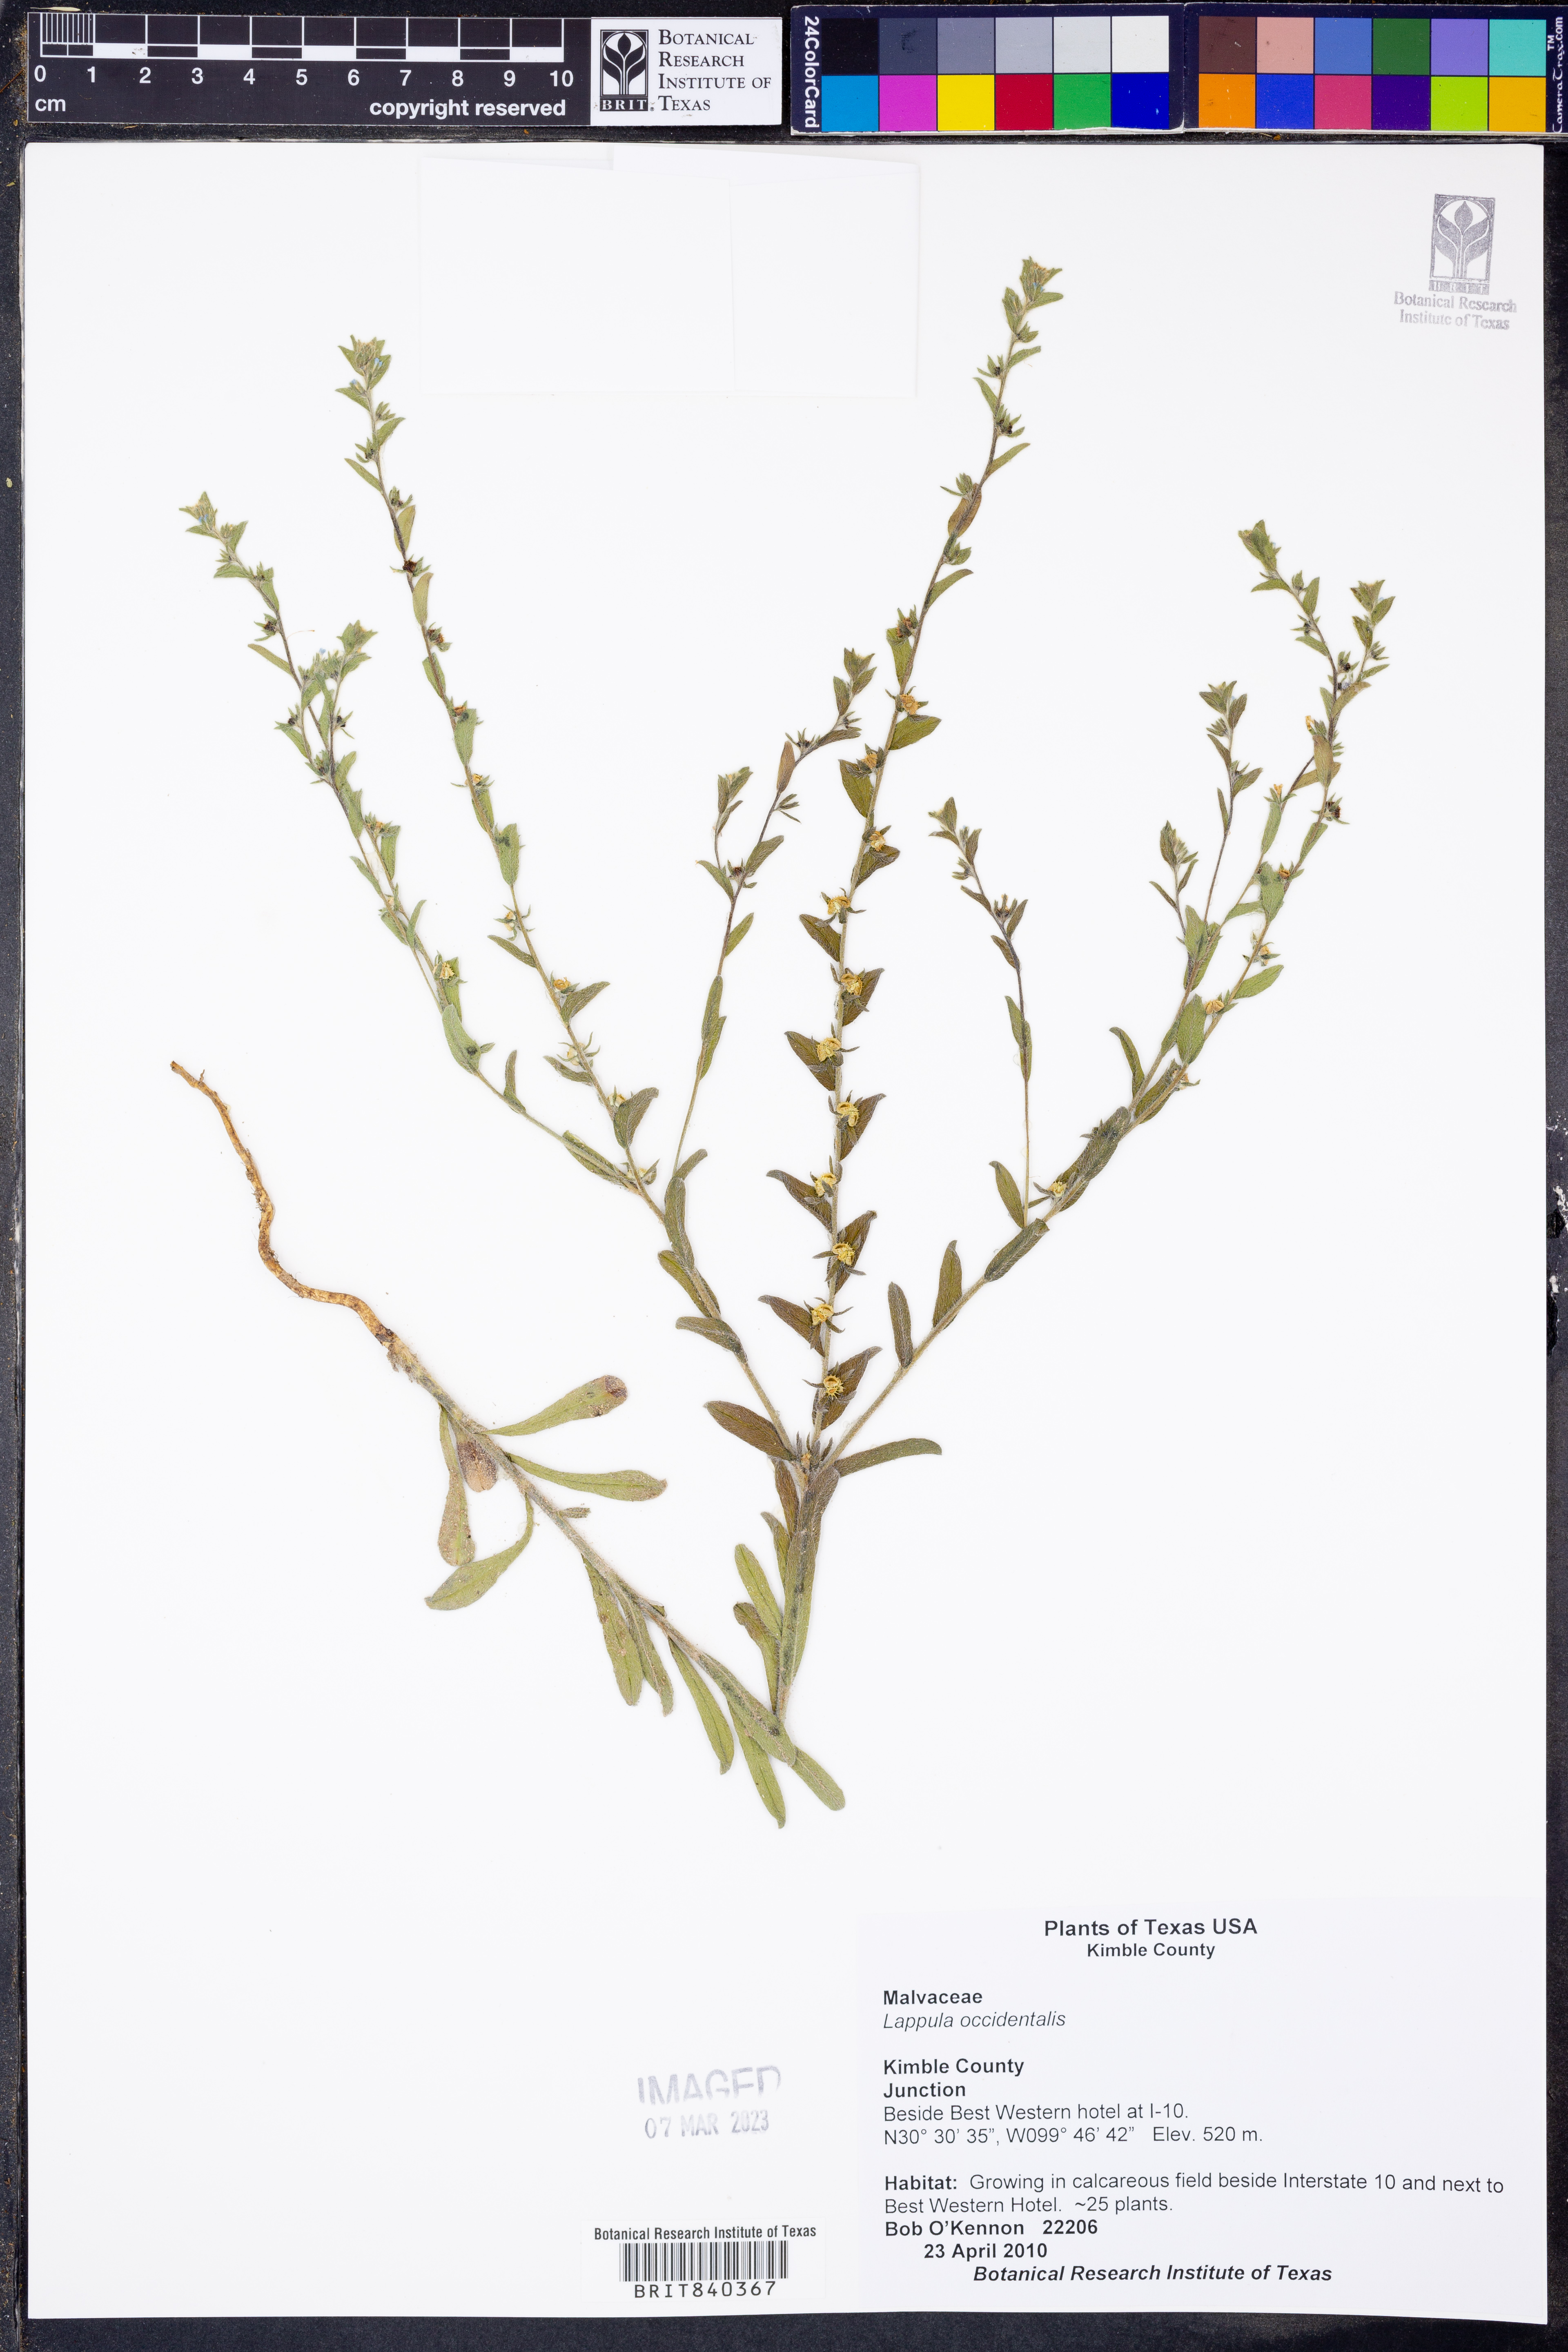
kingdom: Plantae
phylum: Tracheophyta
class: Magnoliopsida
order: Boraginales
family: Boraginaceae
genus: Lappula
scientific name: Lappula occidentalis
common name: Western stickseed
